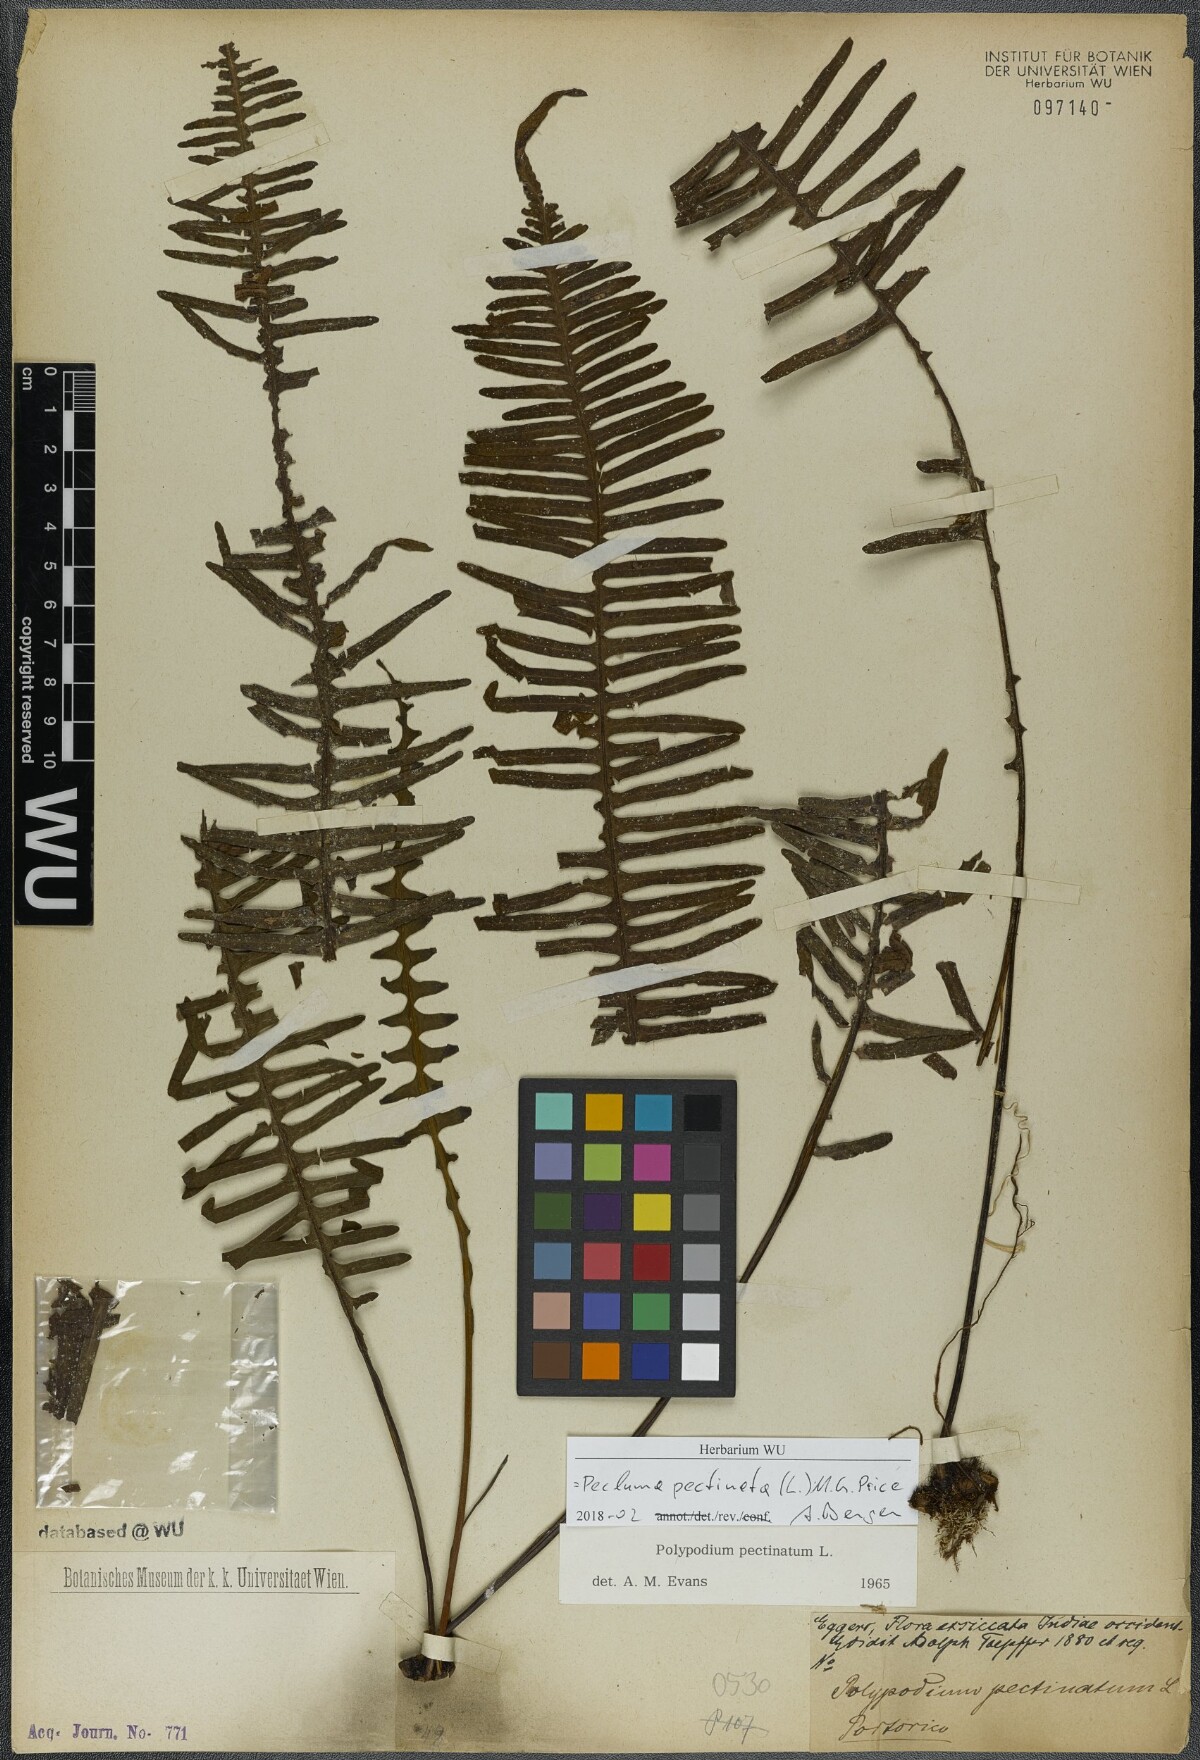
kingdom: Plantae
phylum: Tracheophyta
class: Polypodiopsida
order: Polypodiales
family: Polypodiaceae
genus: Pecluma
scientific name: Pecluma pectinata
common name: Msasa fern
